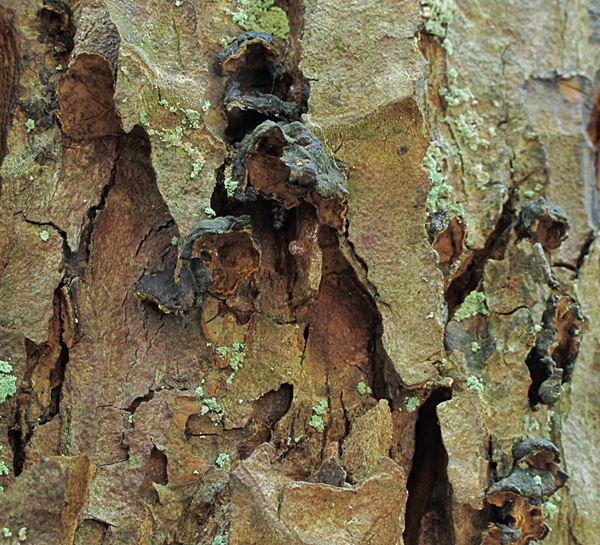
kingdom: Fungi
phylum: Basidiomycota
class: Agaricomycetes
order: Hymenochaetales
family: Hymenochaetaceae
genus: Hymenochaete
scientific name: Hymenochaete ulmicola
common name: elme-ruslædersvamp
